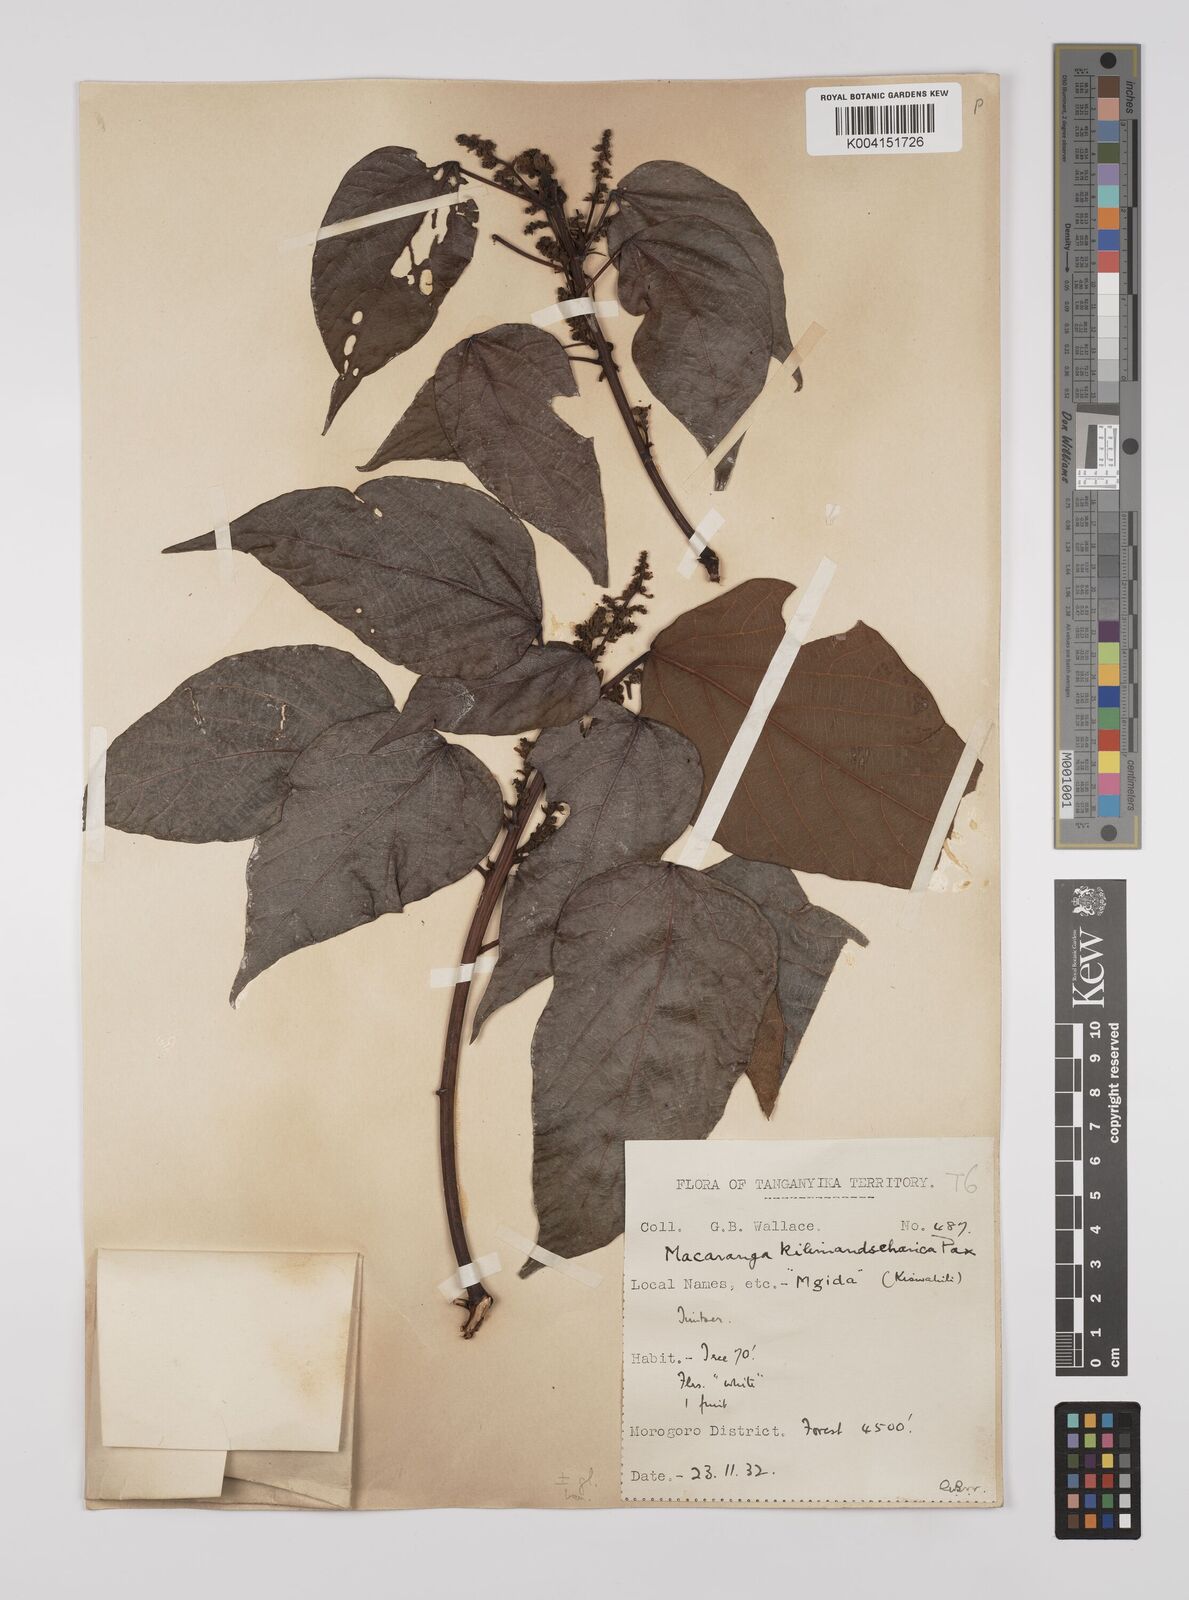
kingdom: Plantae
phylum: Tracheophyta
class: Magnoliopsida
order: Malpighiales
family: Euphorbiaceae
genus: Macaranga
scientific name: Macaranga kilimandscharica
